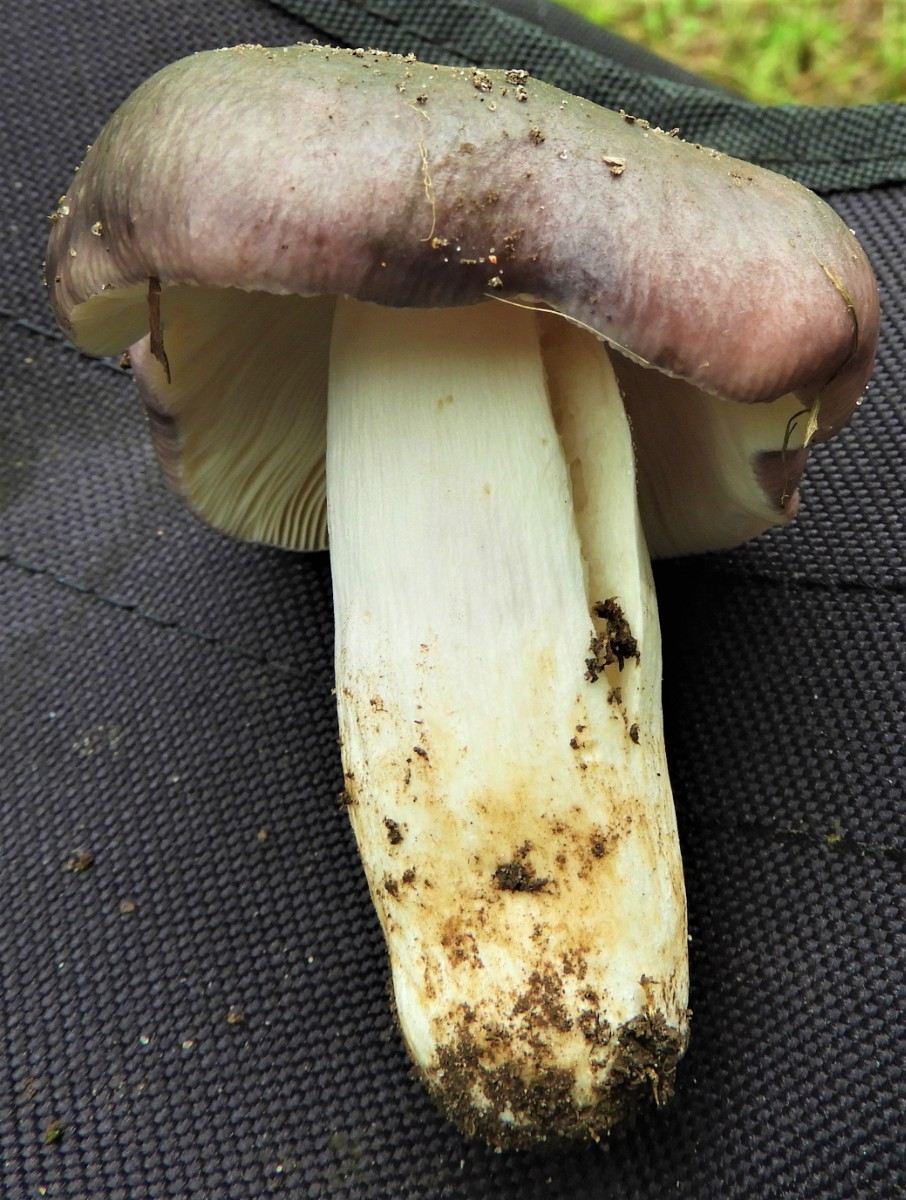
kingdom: Fungi
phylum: Basidiomycota
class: Agaricomycetes
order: Russulales
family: Russulaceae
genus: Russula
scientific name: Russula cyanoxantha
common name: broget skørhat
